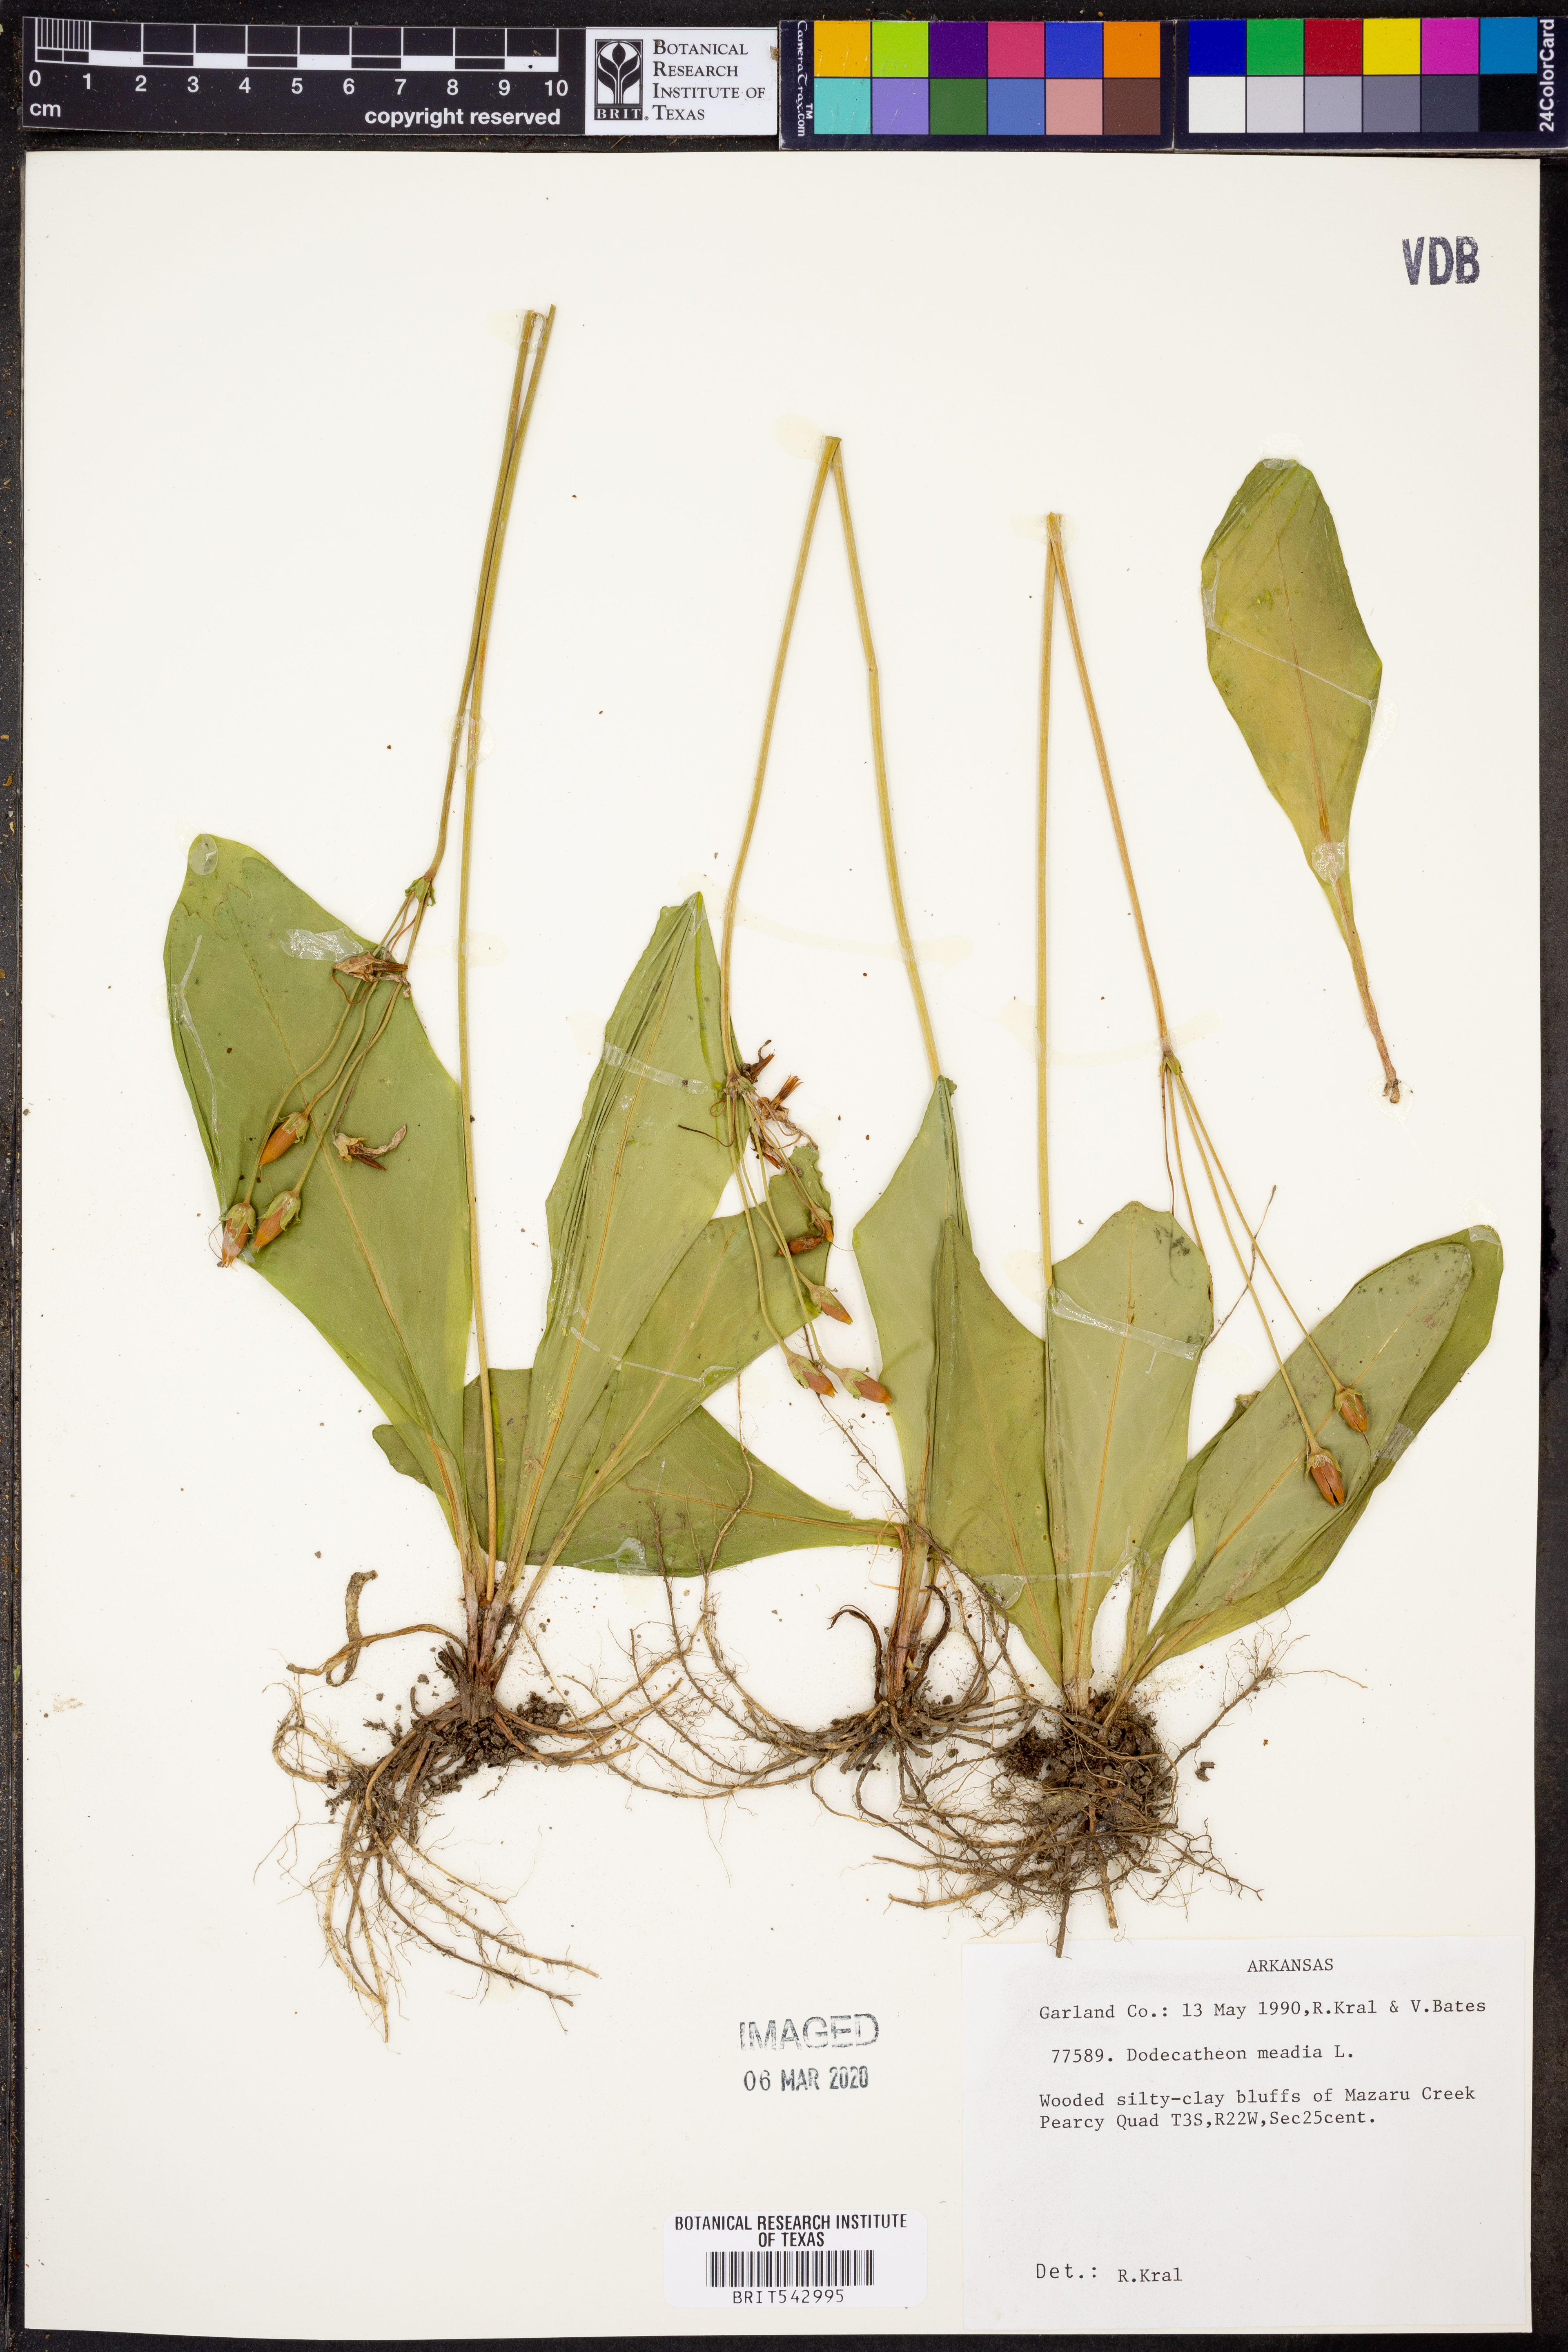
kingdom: Plantae
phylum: Tracheophyta
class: Magnoliopsida
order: Ericales
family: Primulaceae
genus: Dodecatheon
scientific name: Dodecatheon meadia
